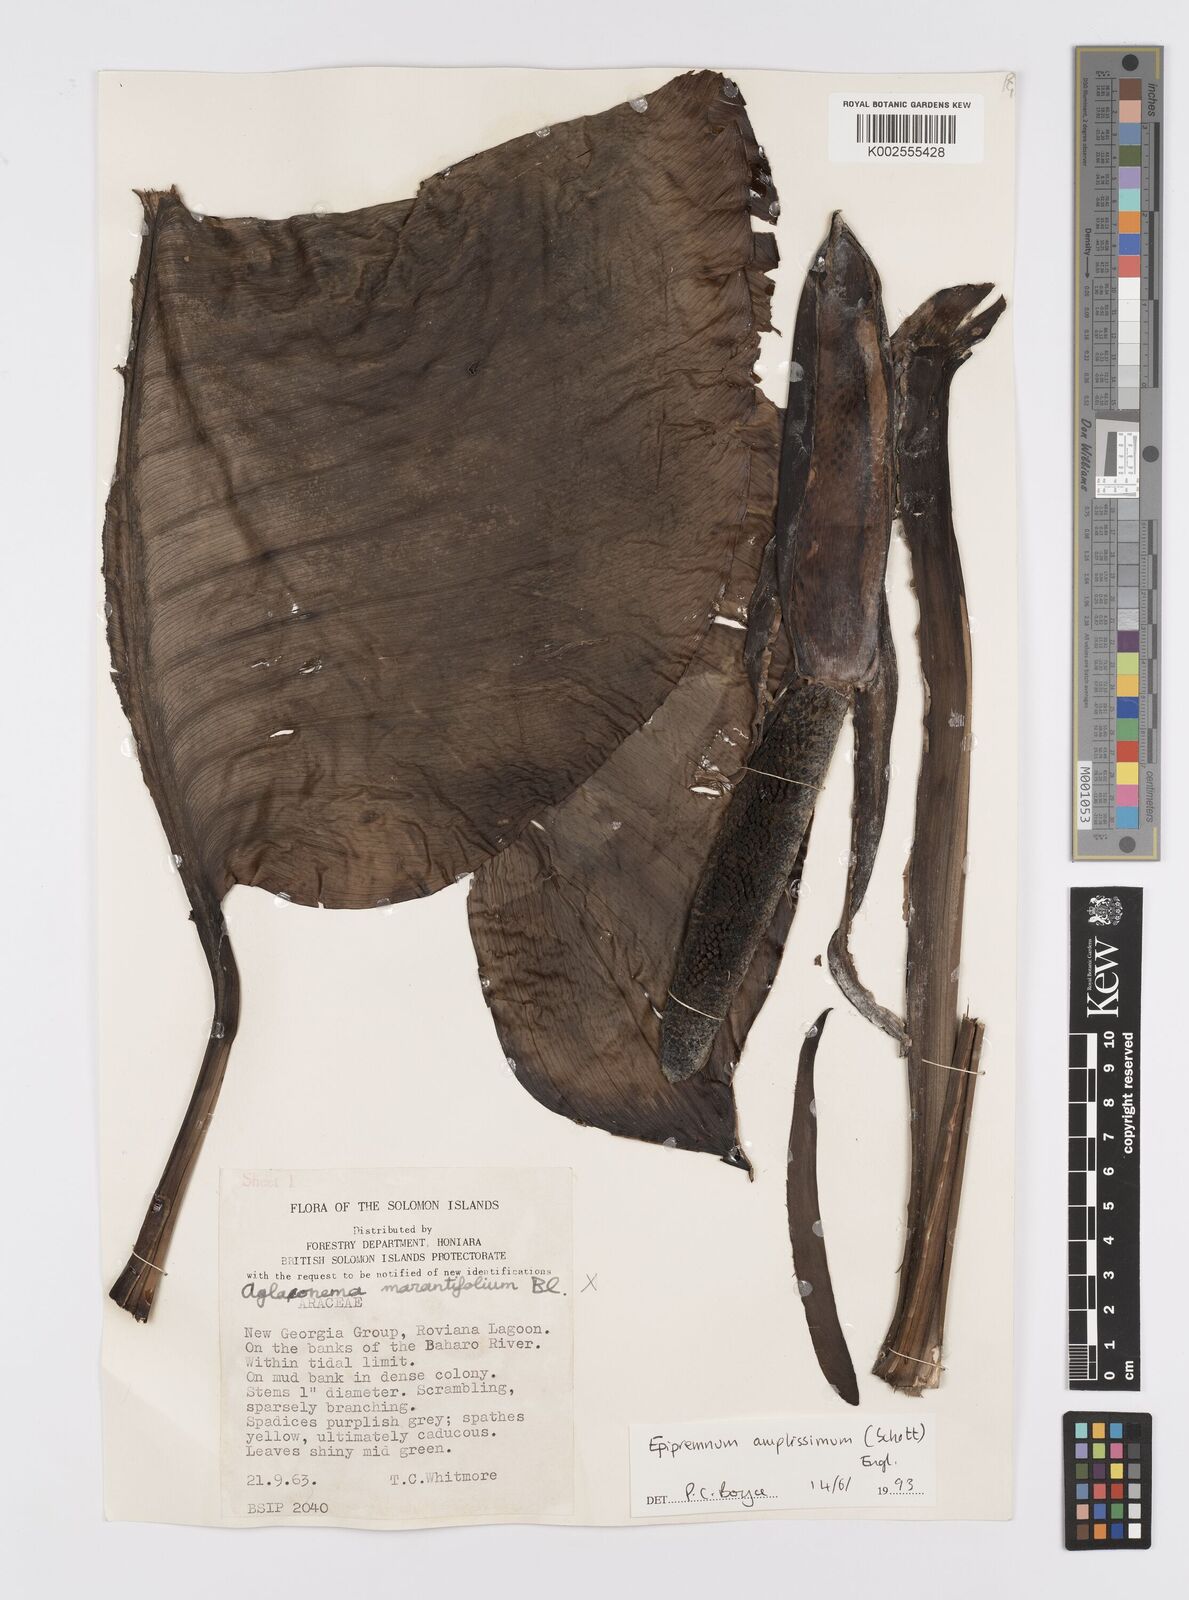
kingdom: Plantae
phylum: Tracheophyta
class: Liliopsida
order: Alismatales
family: Araceae
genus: Epipremnum
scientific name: Epipremnum amplissimum
